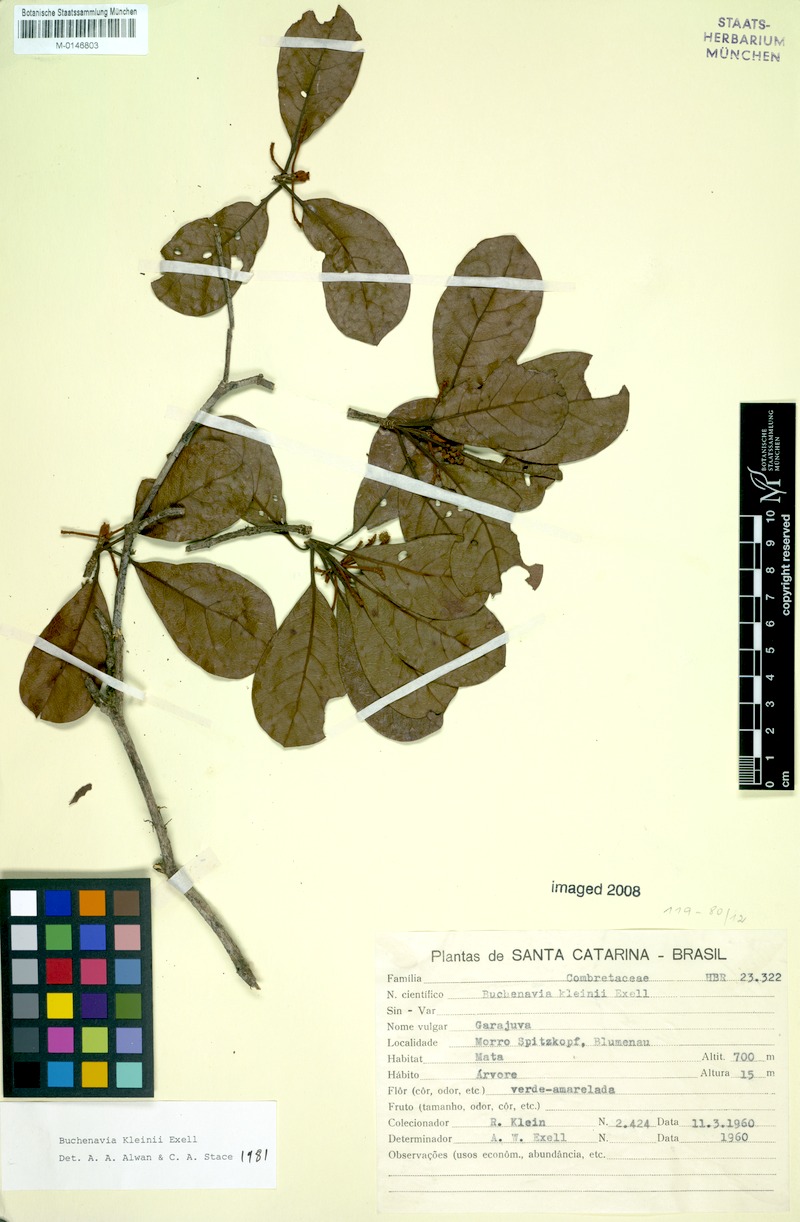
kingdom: Plantae
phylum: Tracheophyta
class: Magnoliopsida
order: Myrtales
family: Combretaceae
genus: Terminalia
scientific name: Terminalia kleinii
